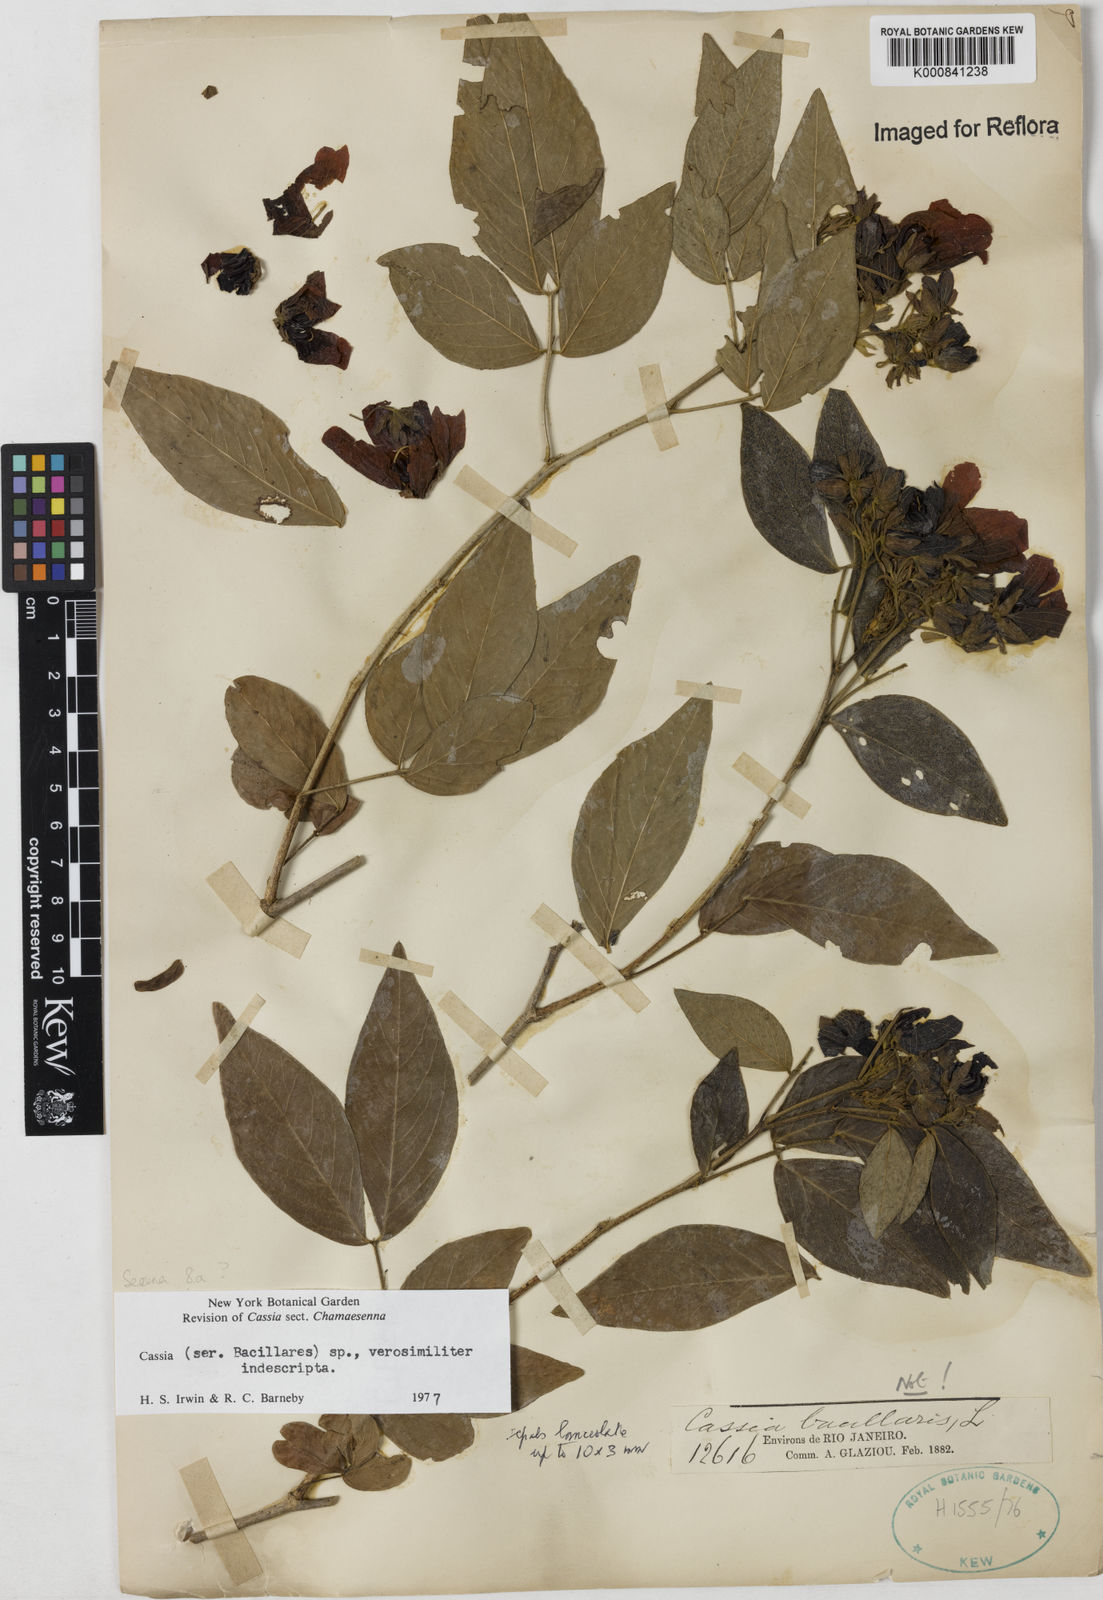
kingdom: Plantae
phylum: Tracheophyta
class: Magnoliopsida
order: Fabales
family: Fabaceae
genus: Senna
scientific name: Senna
